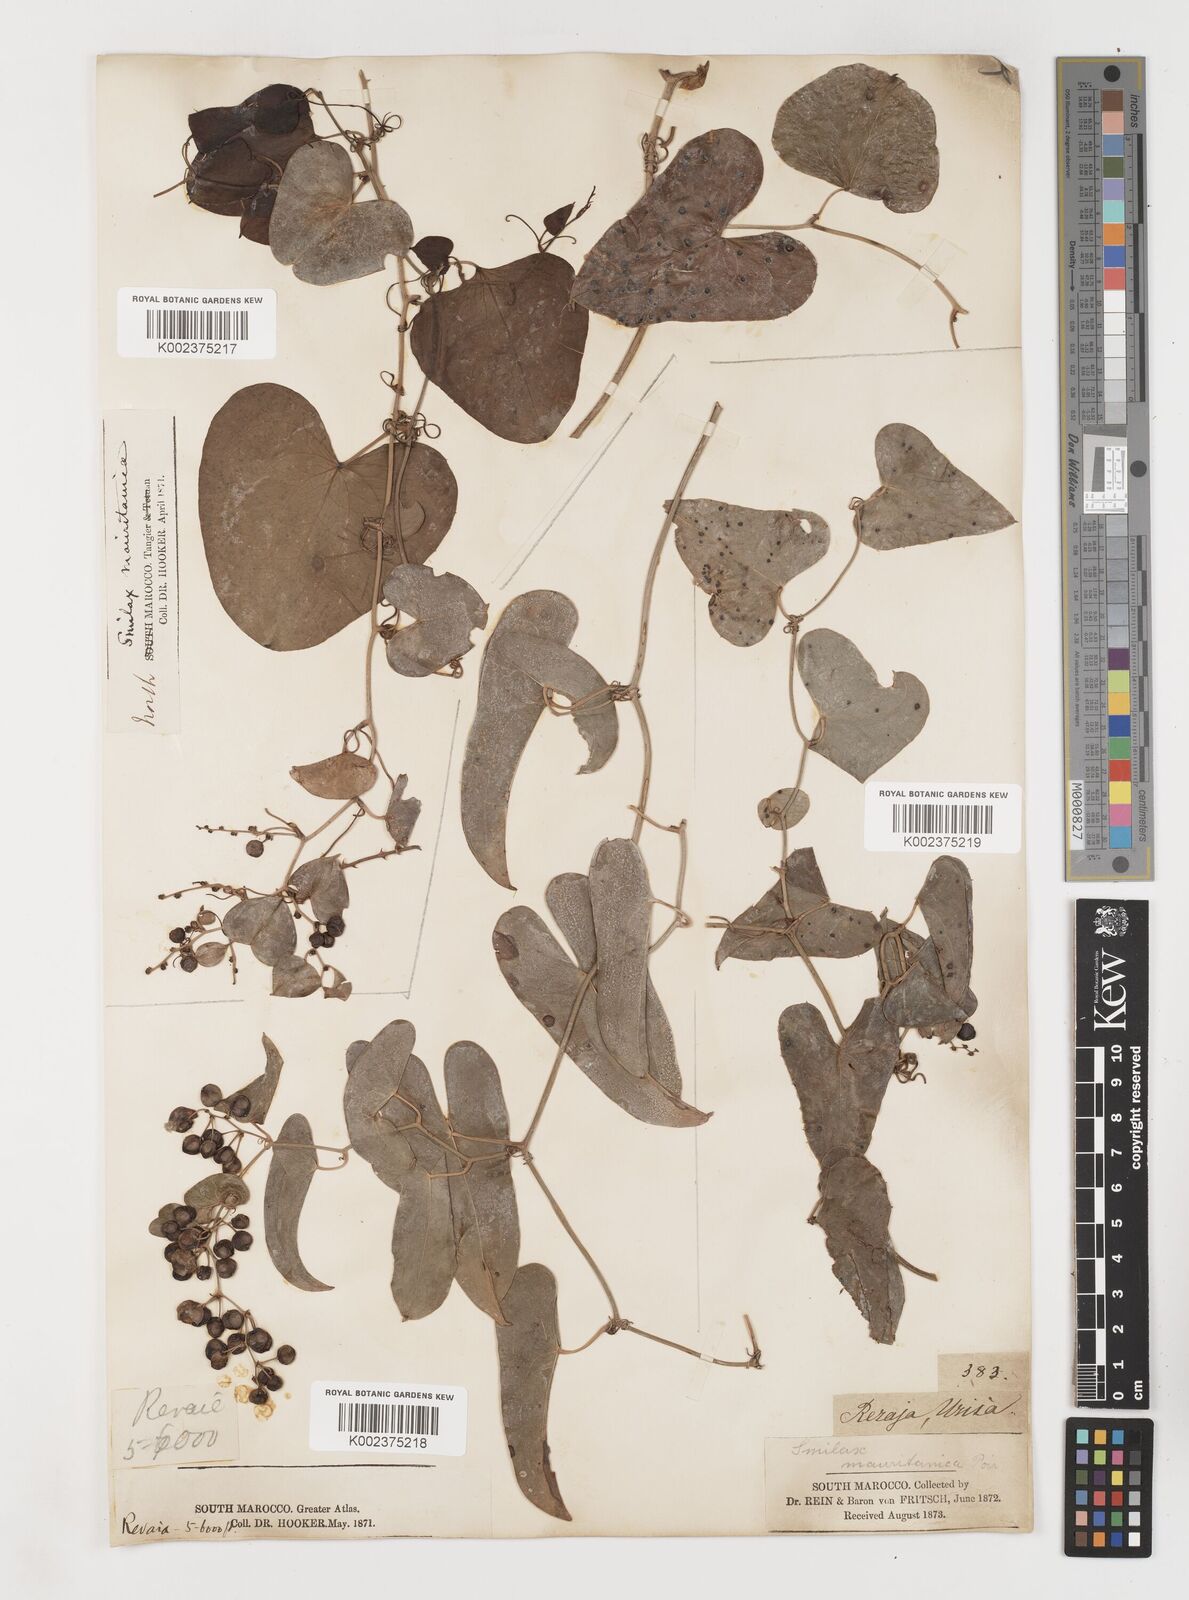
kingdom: Plantae
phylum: Tracheophyta
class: Liliopsida
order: Liliales
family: Smilacaceae
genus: Smilax
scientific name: Smilax aspera
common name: Common smilax
